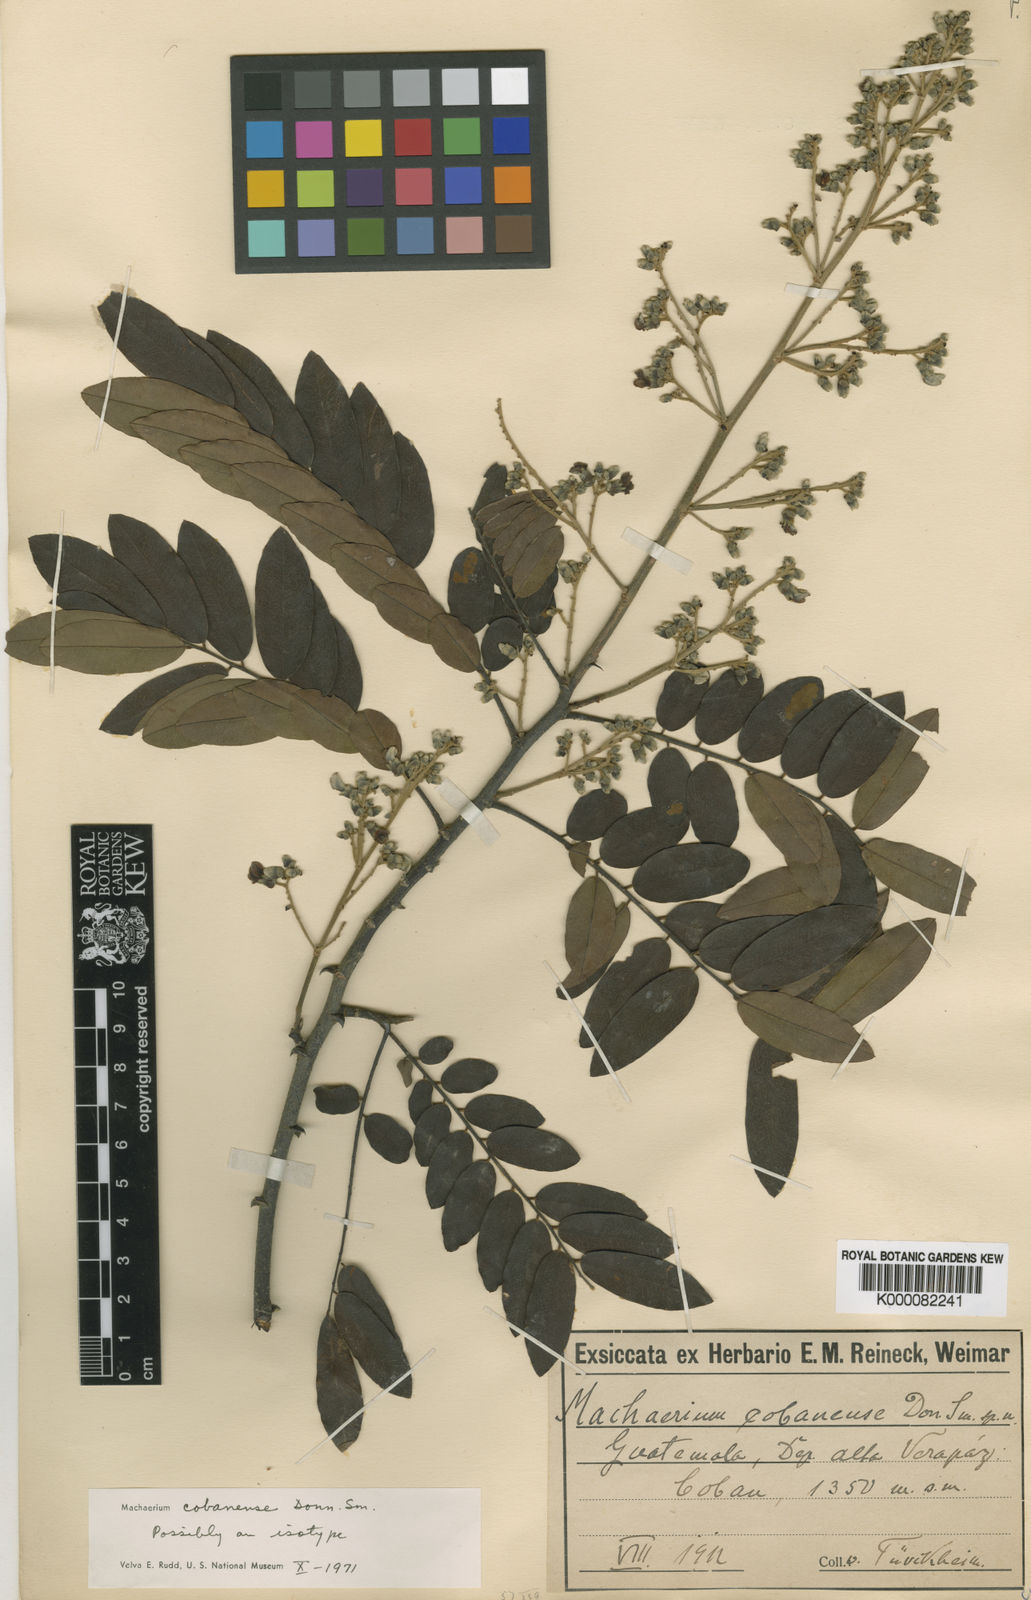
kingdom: Plantae
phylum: Tracheophyta
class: Magnoliopsida
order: Fabales
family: Fabaceae
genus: Machaerium
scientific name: Machaerium
